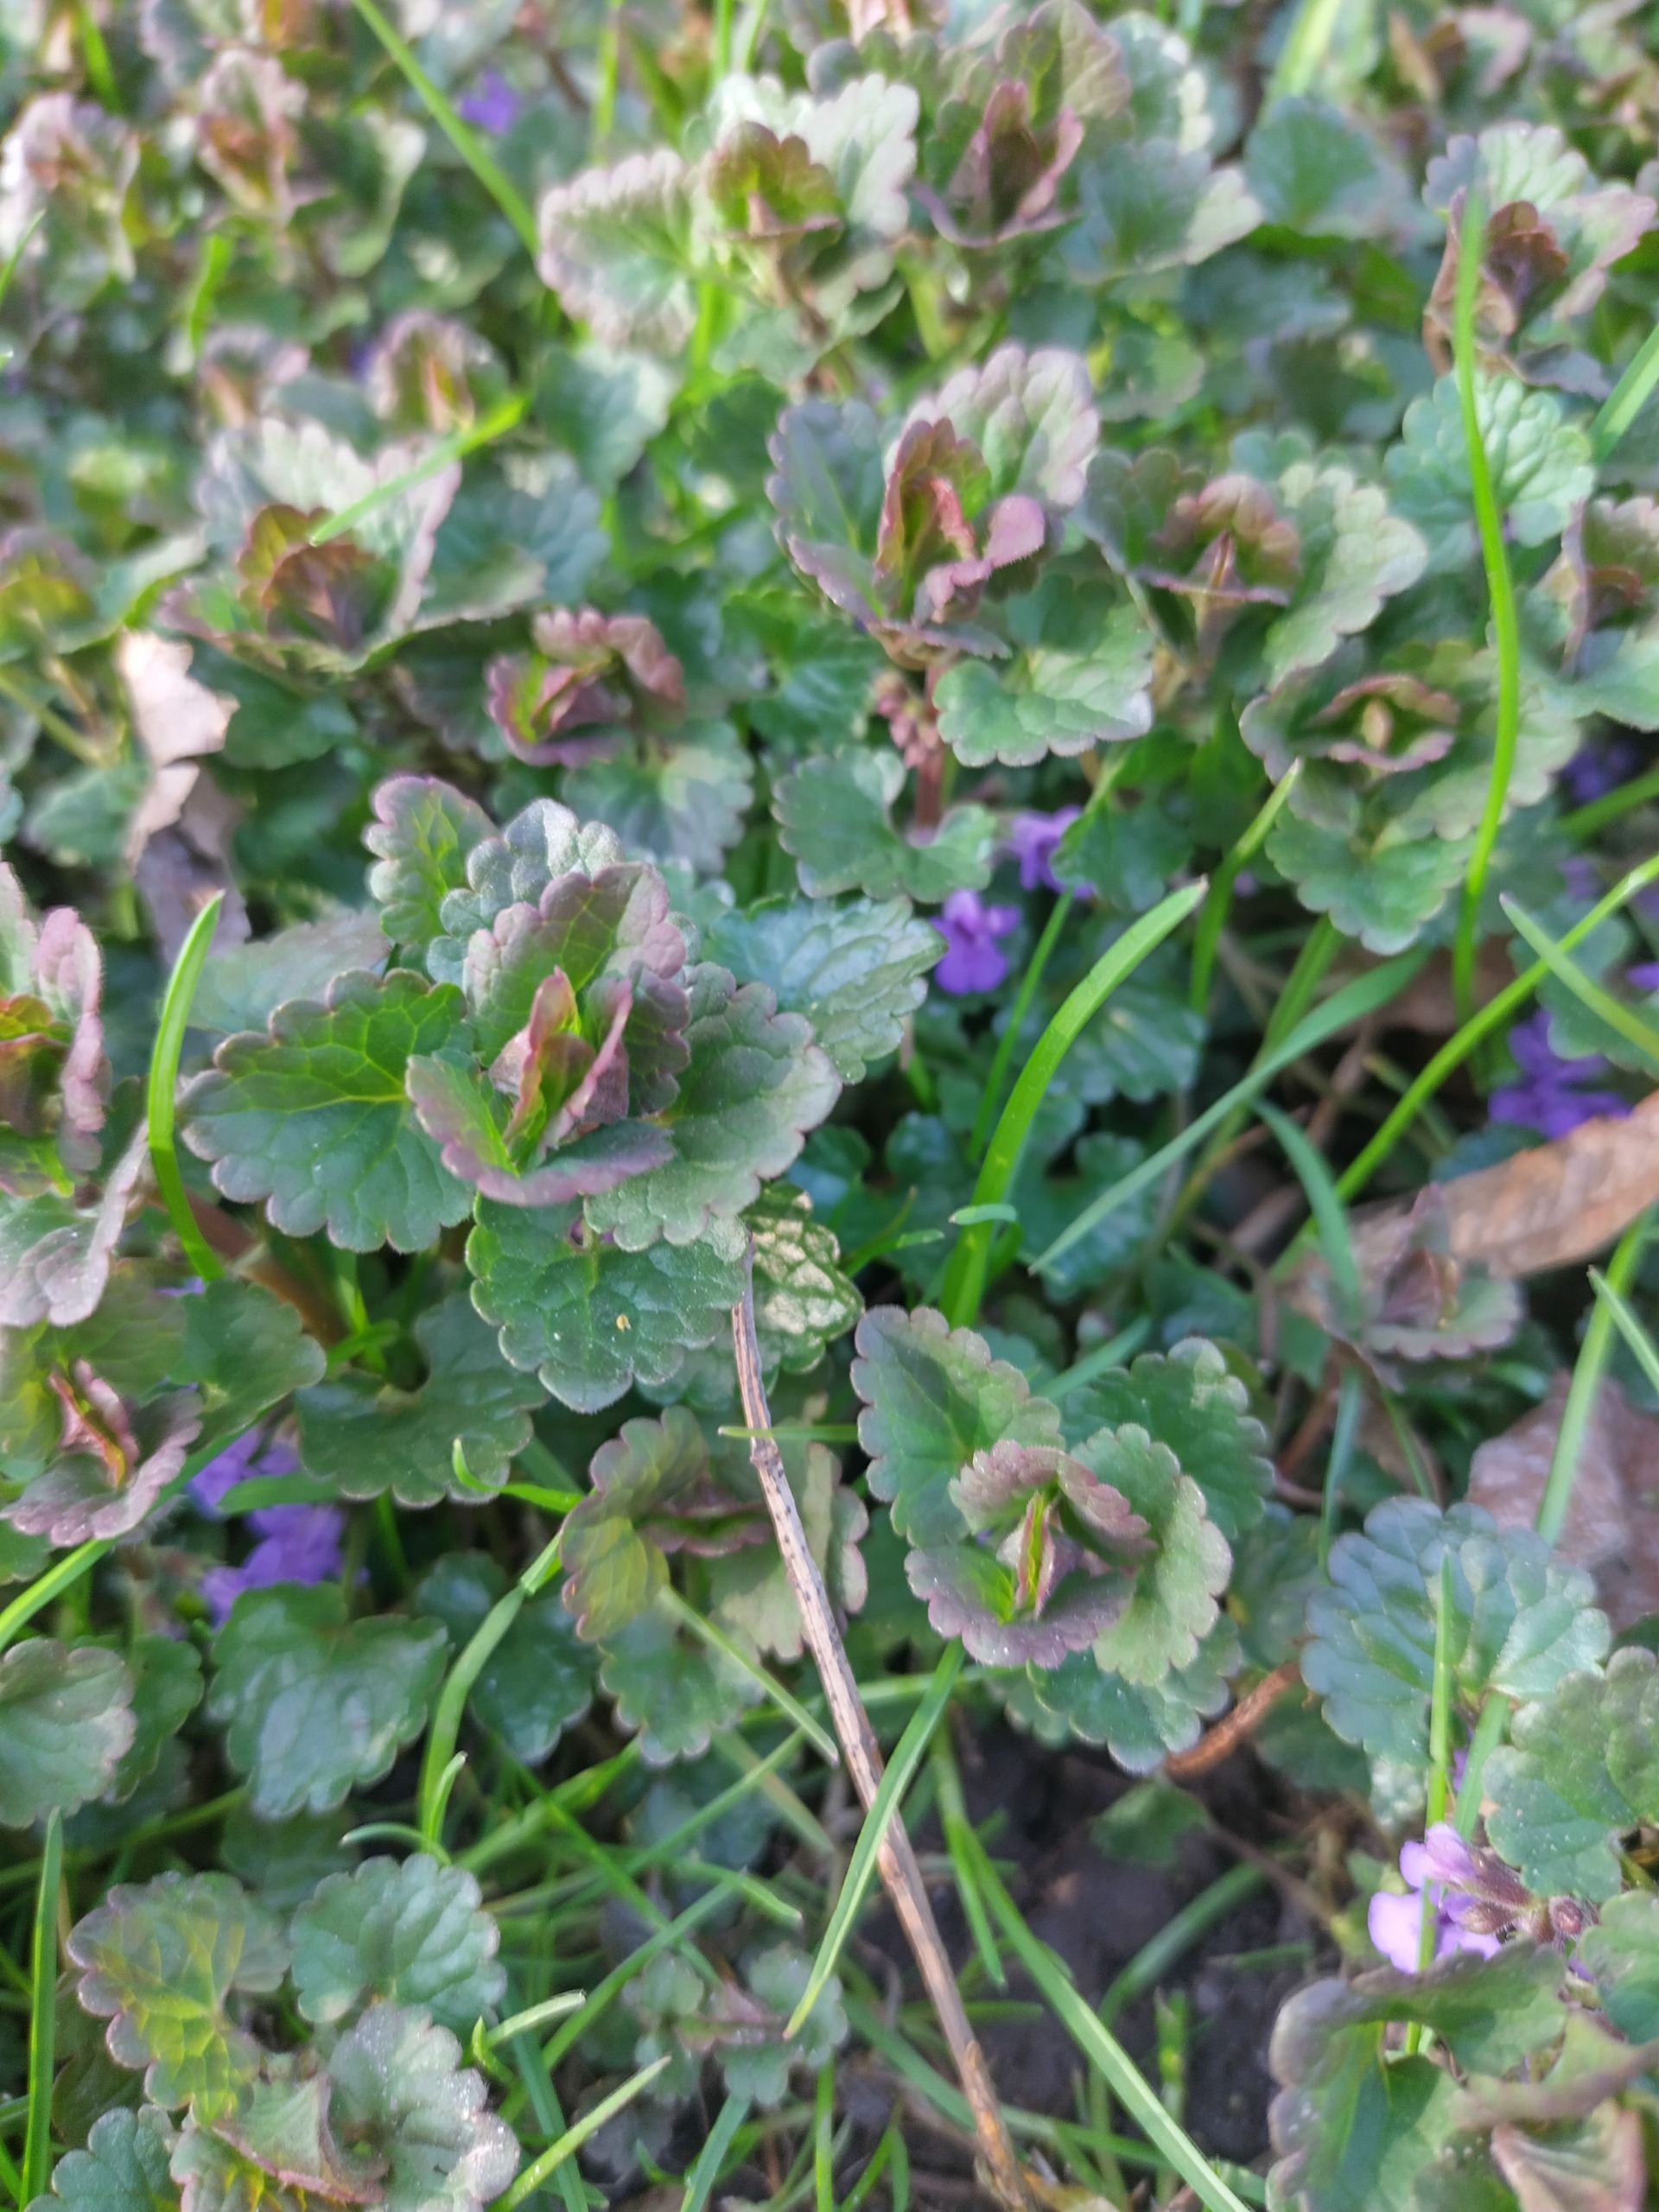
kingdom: Plantae
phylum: Tracheophyta
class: Magnoliopsida
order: Lamiales
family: Lamiaceae
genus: Glechoma
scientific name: Glechoma hederacea
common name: Korsknap
